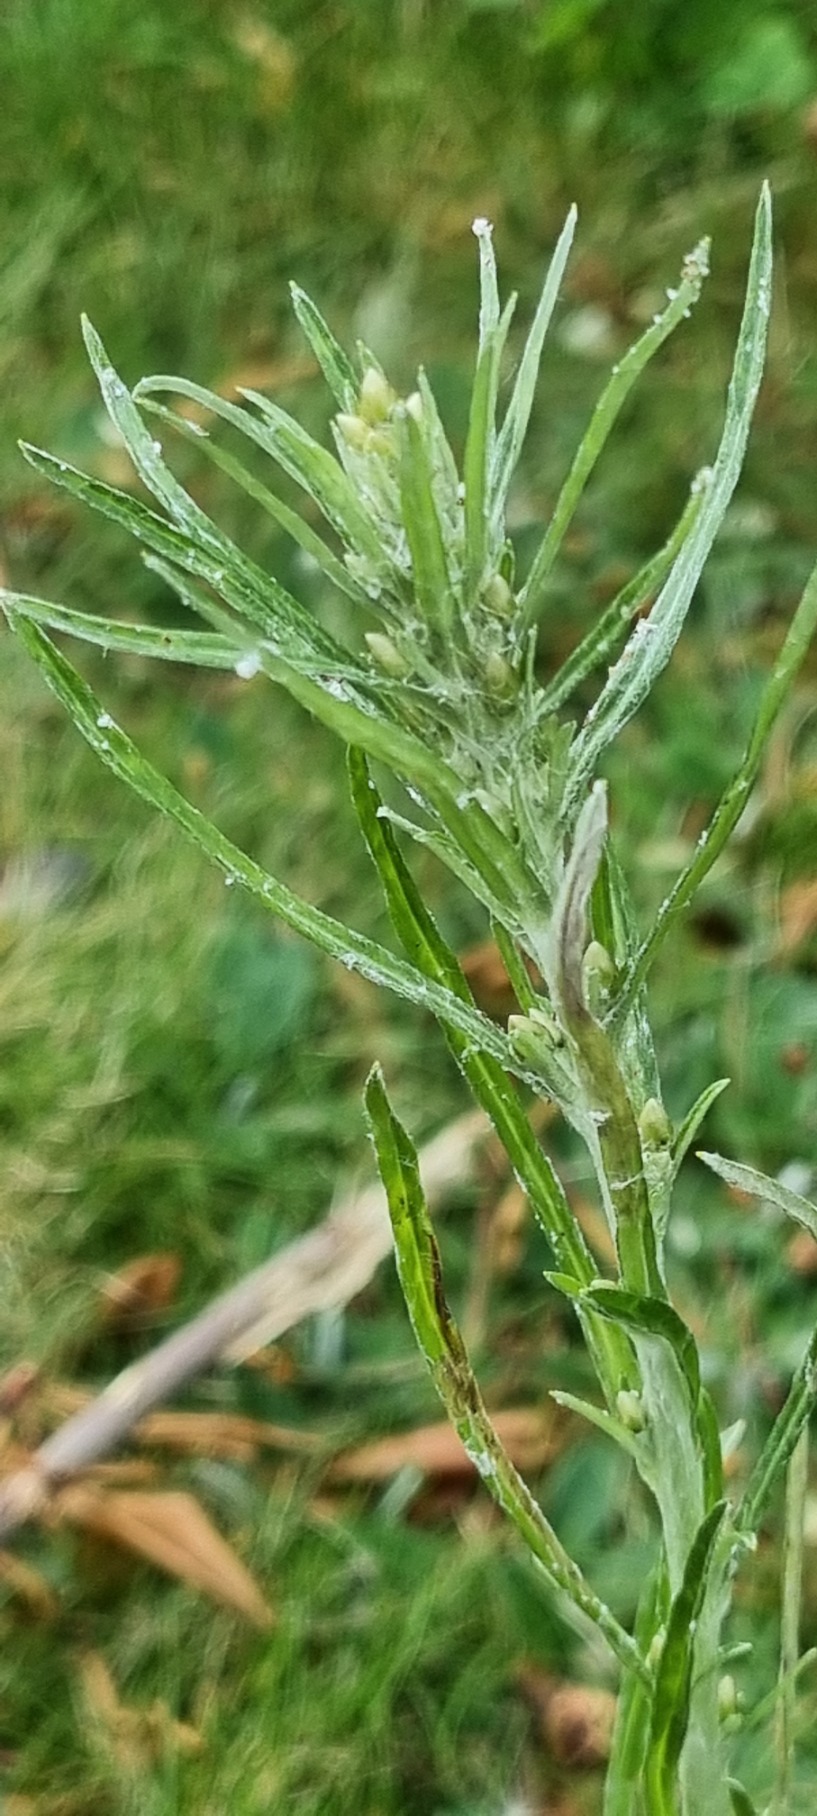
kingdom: Plantae
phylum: Tracheophyta
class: Magnoliopsida
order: Asterales
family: Asteraceae
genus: Omalotheca
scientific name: Omalotheca sylvatica
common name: Rank evighedsblomst
